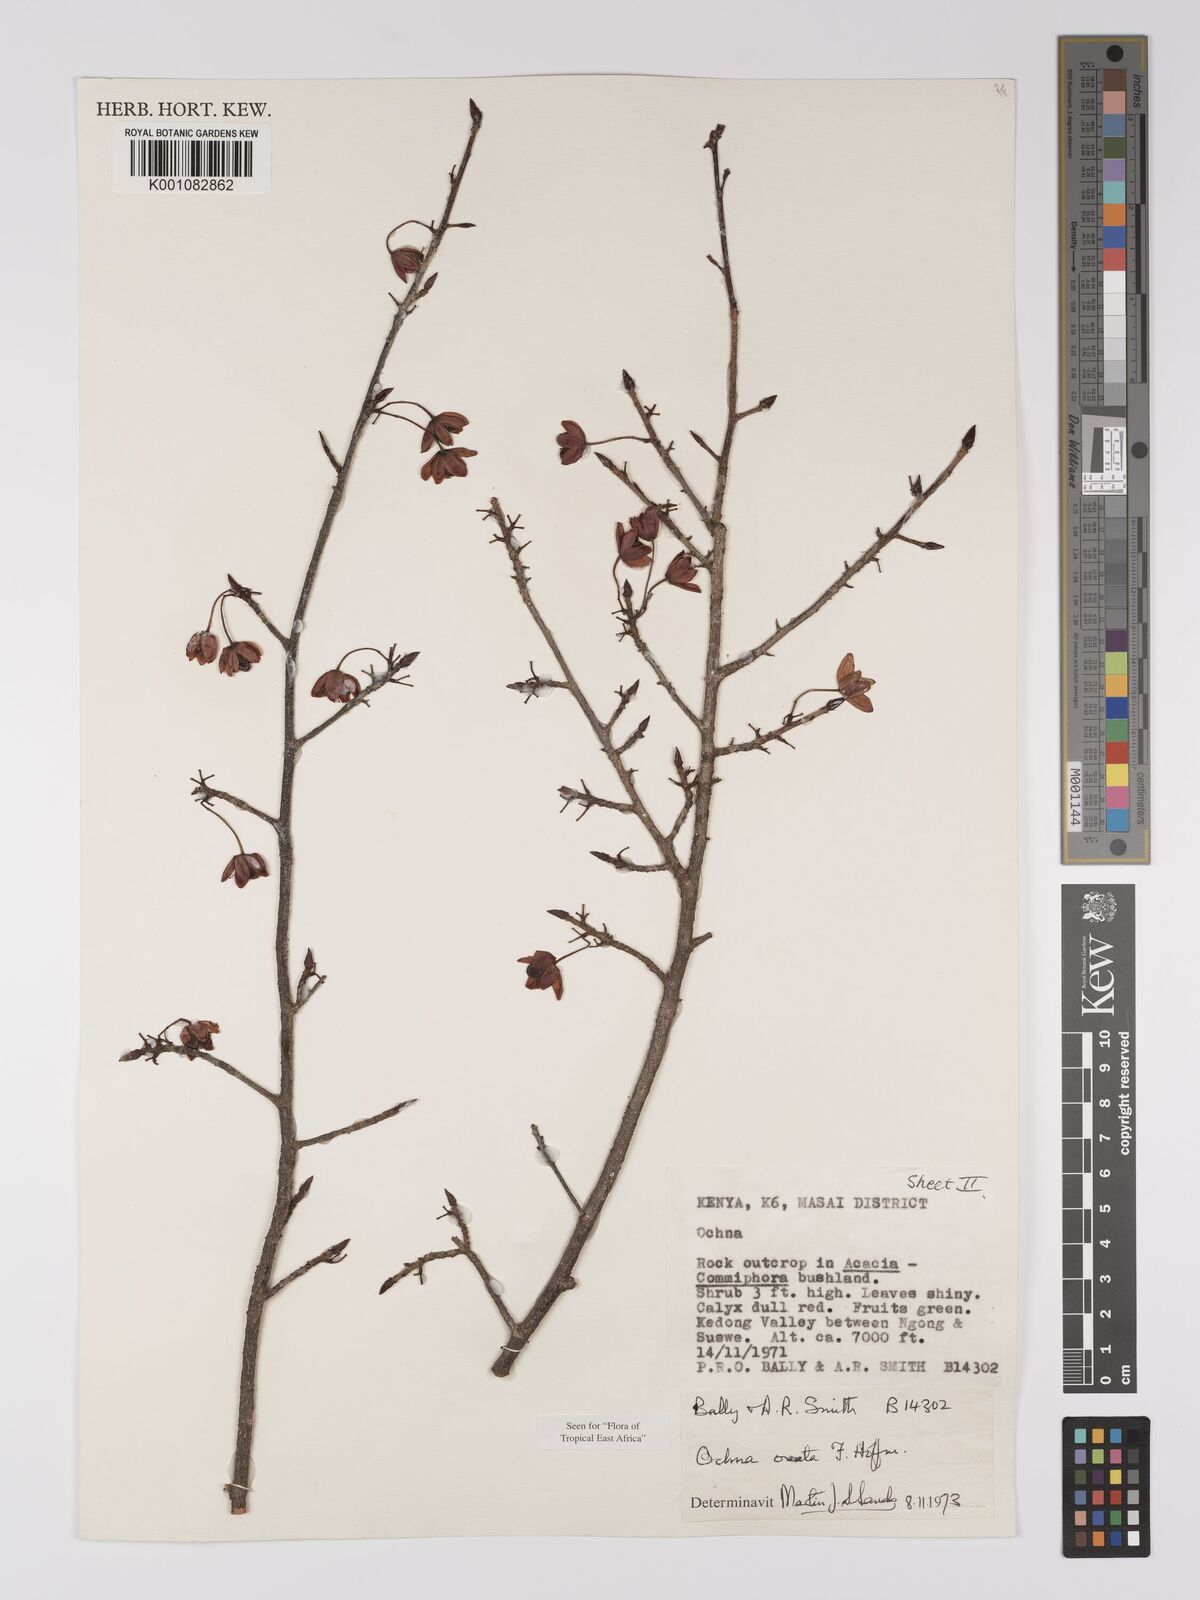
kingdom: Plantae
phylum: Tracheophyta
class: Magnoliopsida
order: Malpighiales
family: Ochnaceae
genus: Ochna
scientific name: Ochna ovata
